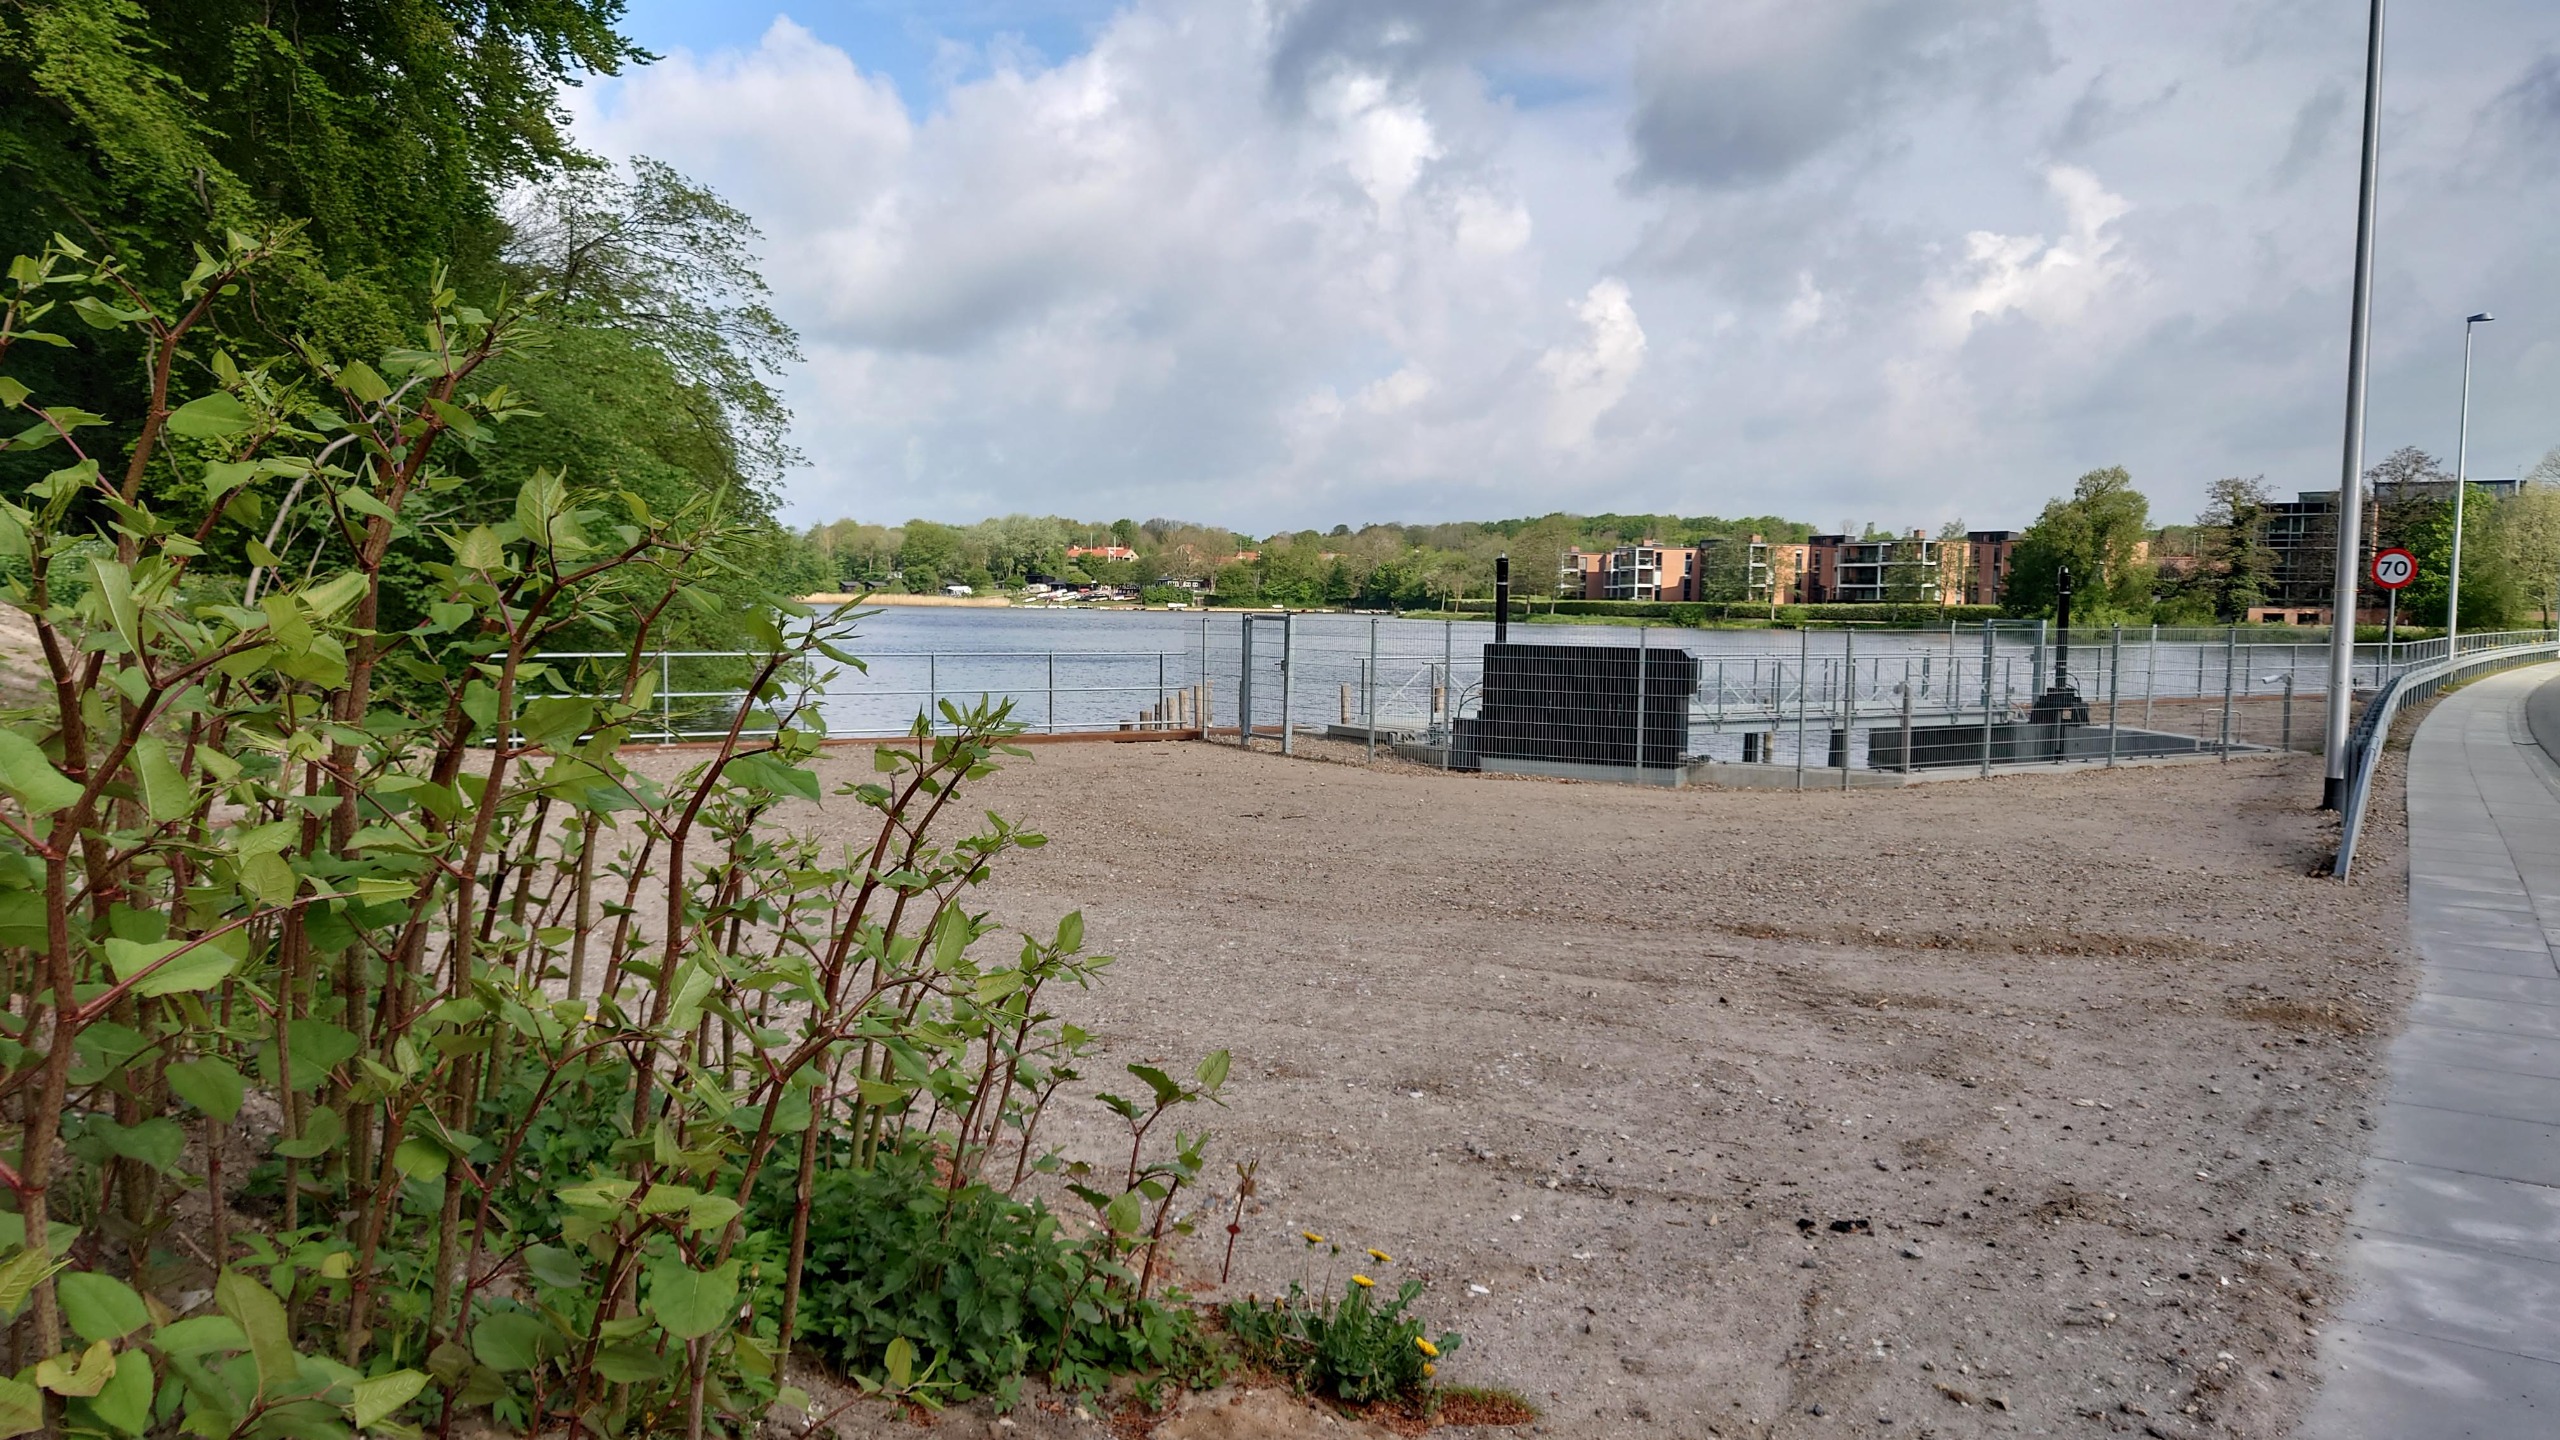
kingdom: Plantae
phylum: Tracheophyta
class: Magnoliopsida
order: Caryophyllales
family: Polygonaceae
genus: Reynoutria
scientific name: Reynoutria japonica
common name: Japan-pileurt
